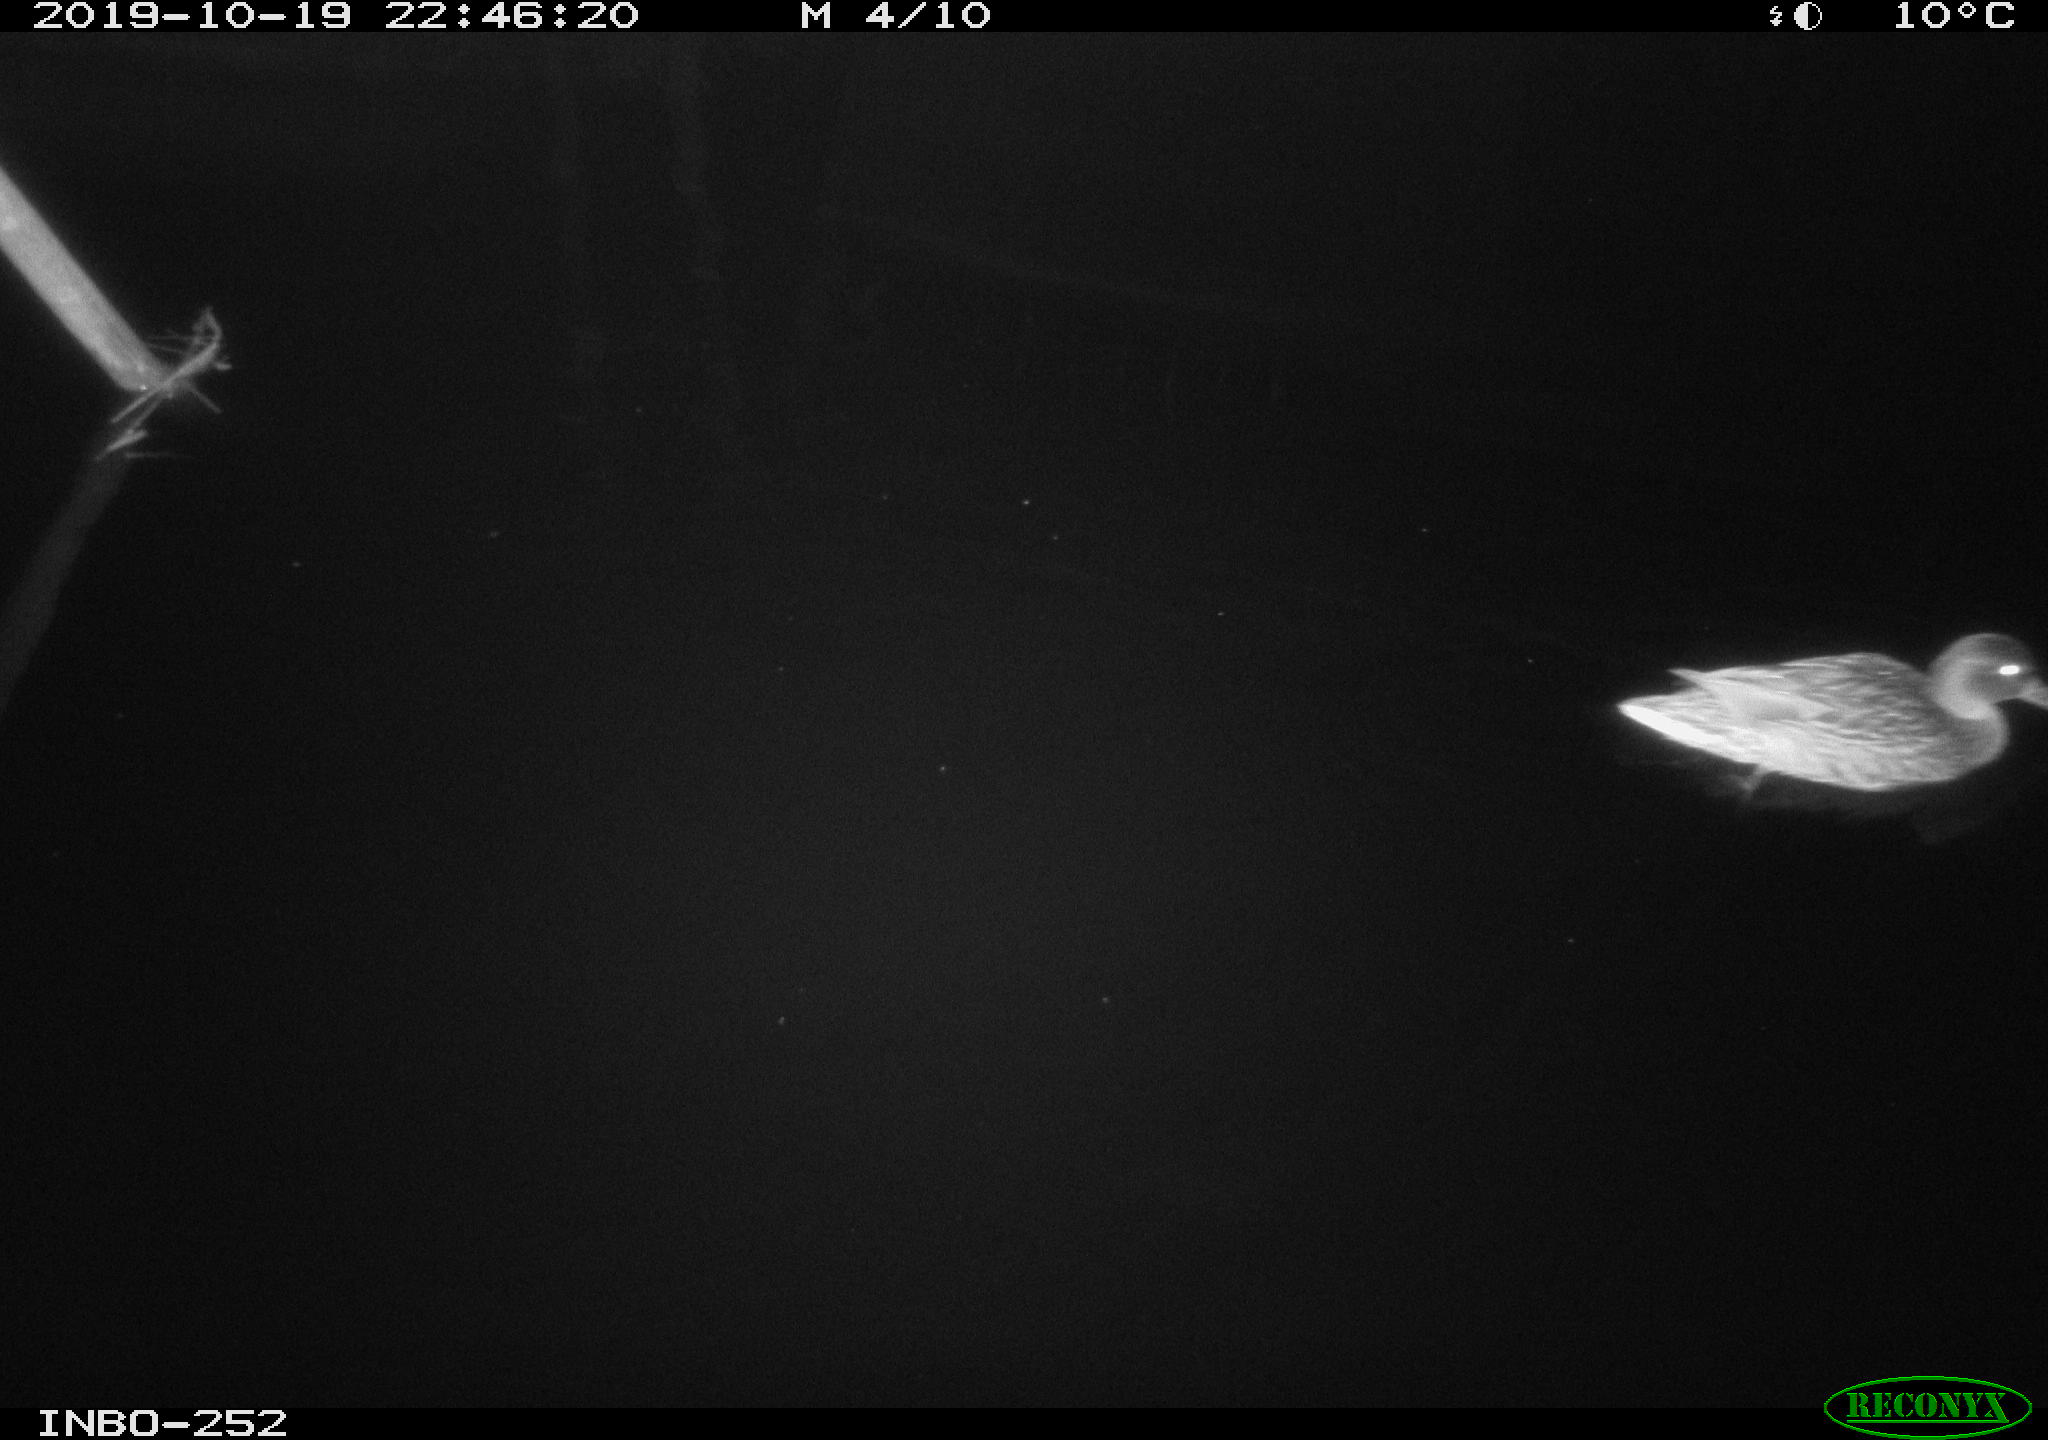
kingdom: Animalia
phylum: Chordata
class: Aves
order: Anseriformes
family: Anatidae
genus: Anas
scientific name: Anas platyrhynchos
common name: Mallard
